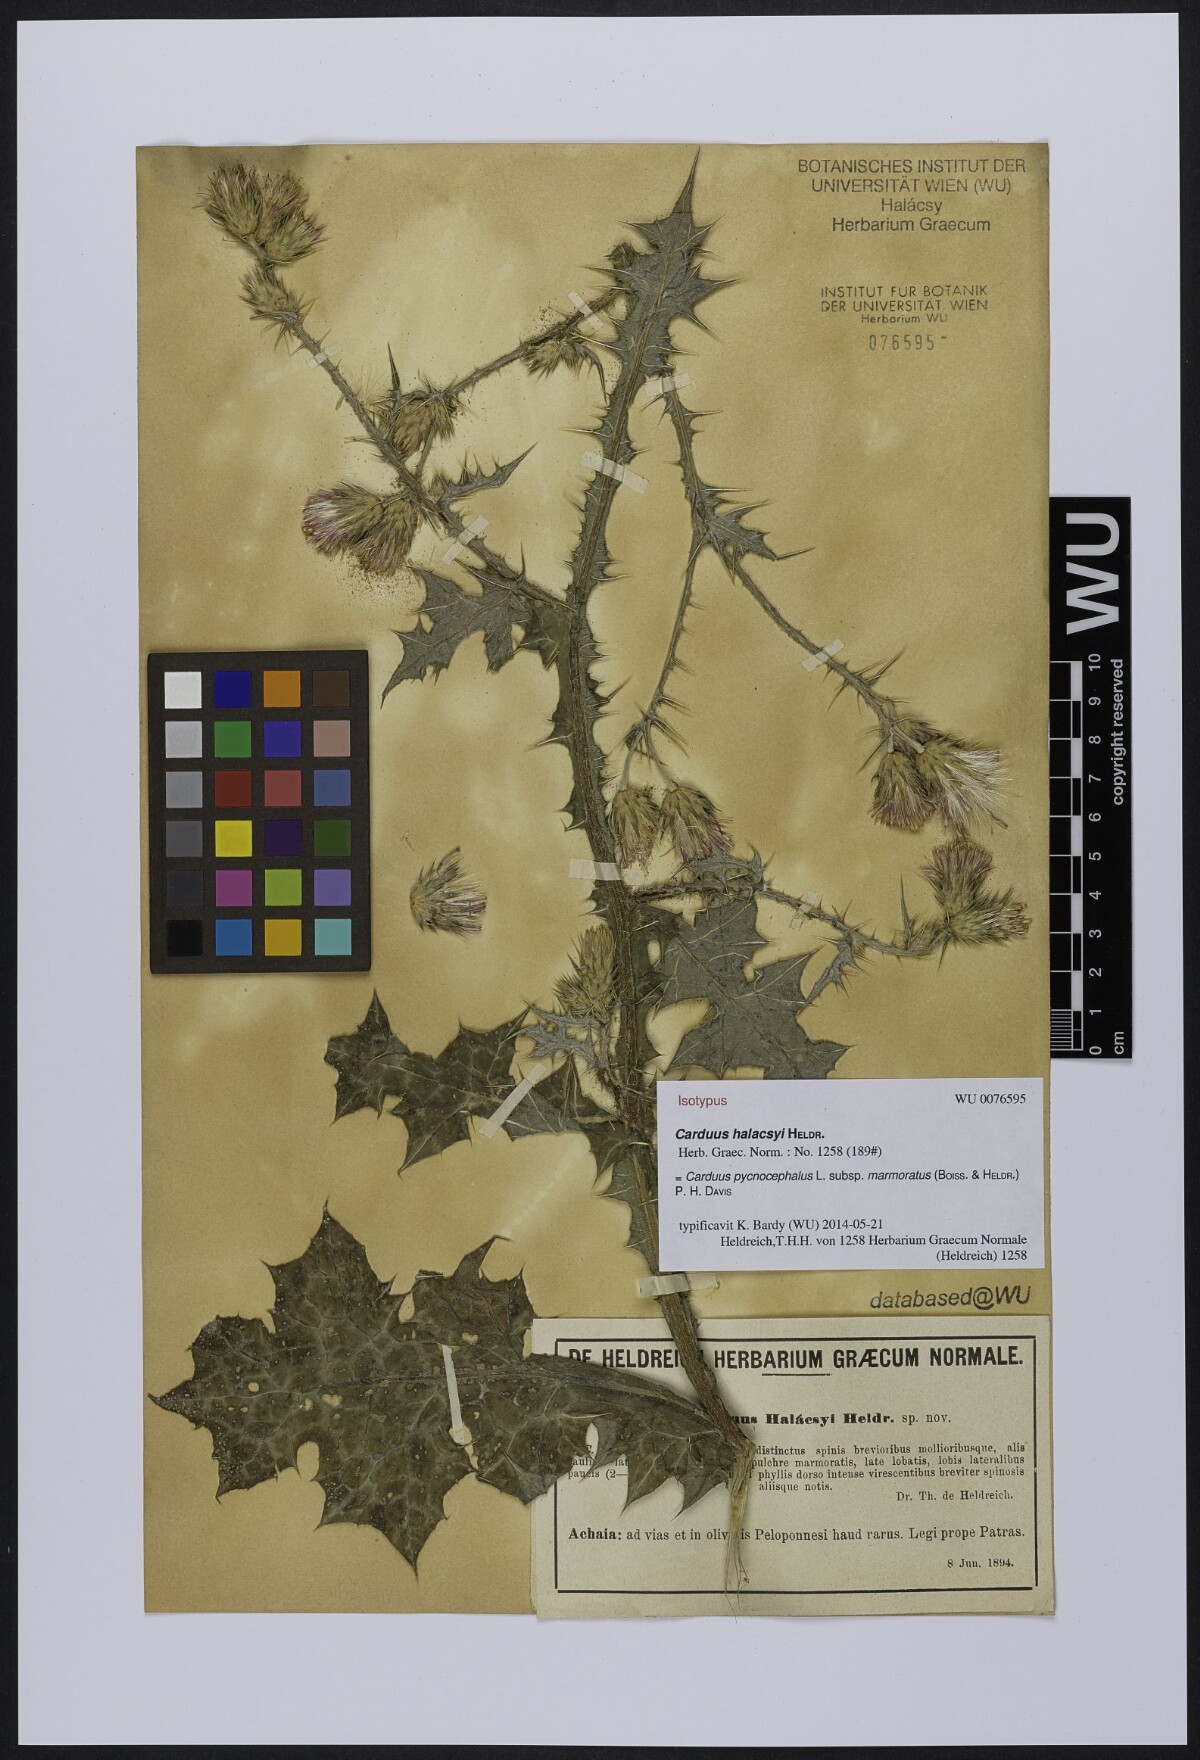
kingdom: Plantae
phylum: Tracheophyta
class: Magnoliopsida
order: Asterales
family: Asteraceae
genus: Carduus
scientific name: Carduus arabicus
